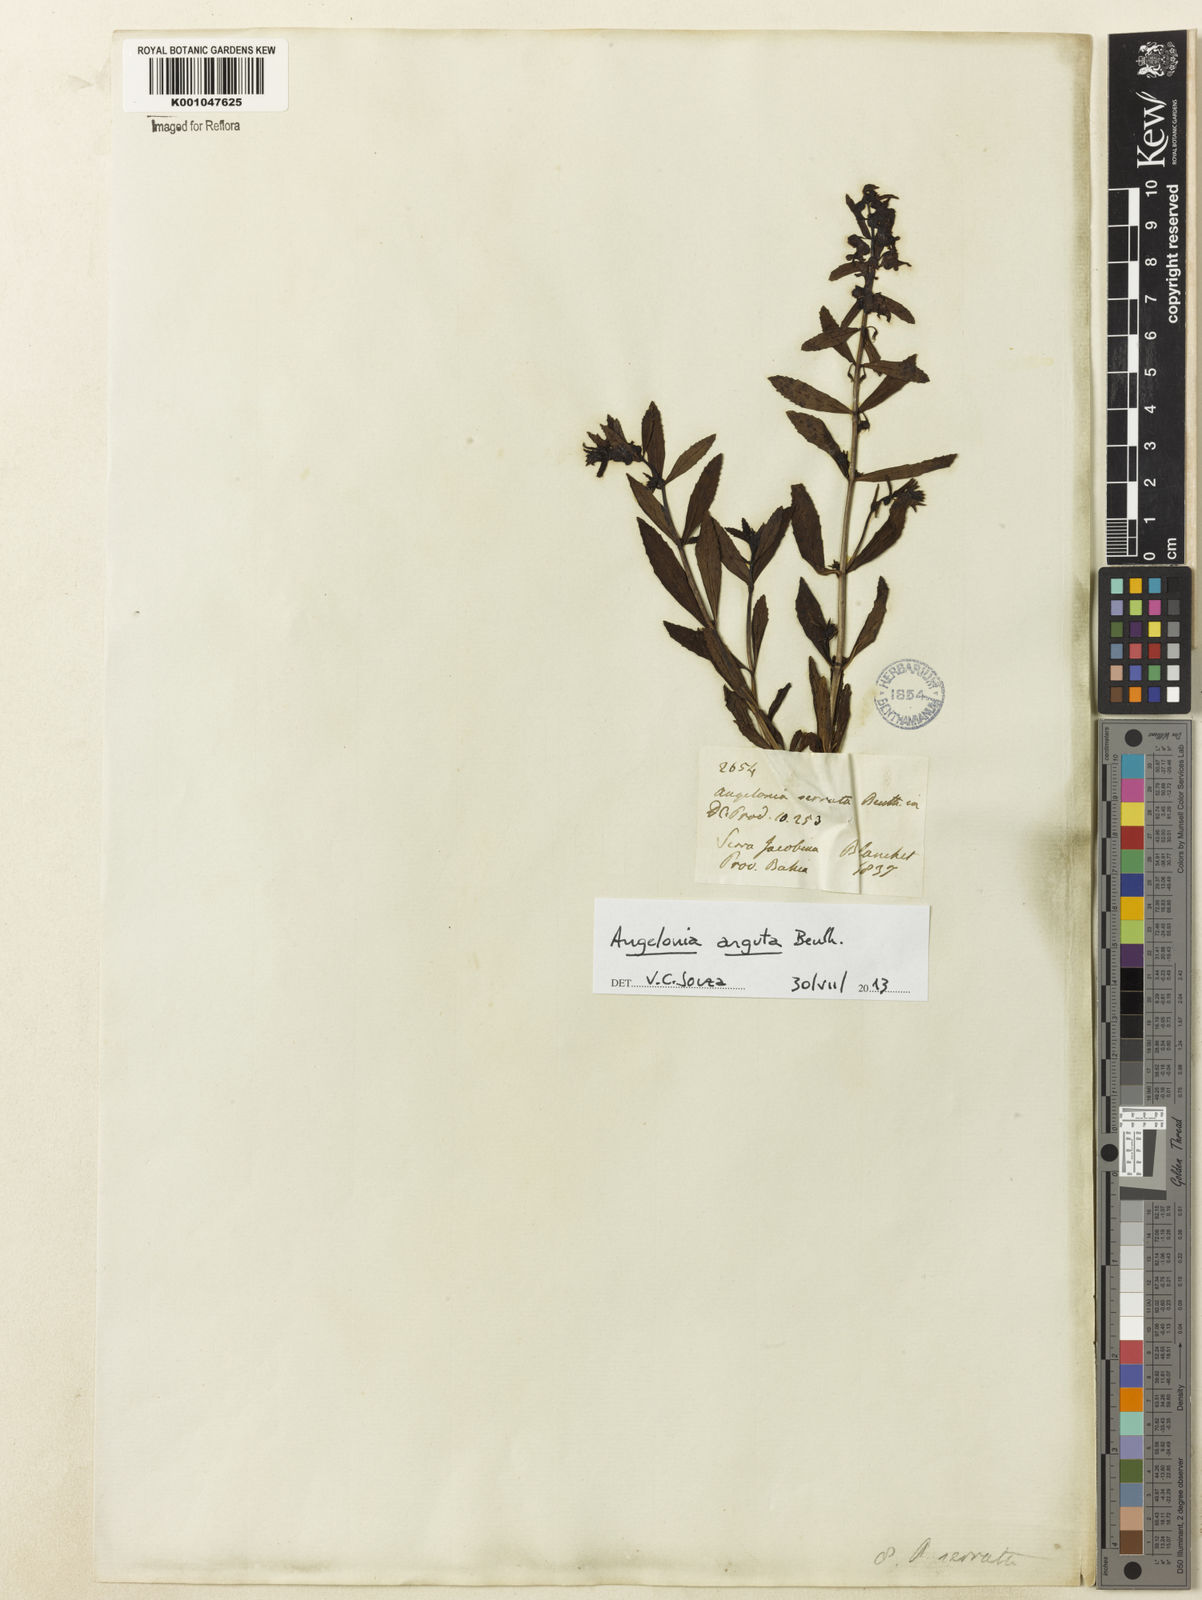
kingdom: Plantae
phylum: Tracheophyta
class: Magnoliopsida
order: Lamiales
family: Plantaginaceae
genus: Angelonia
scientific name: Angelonia arguta
